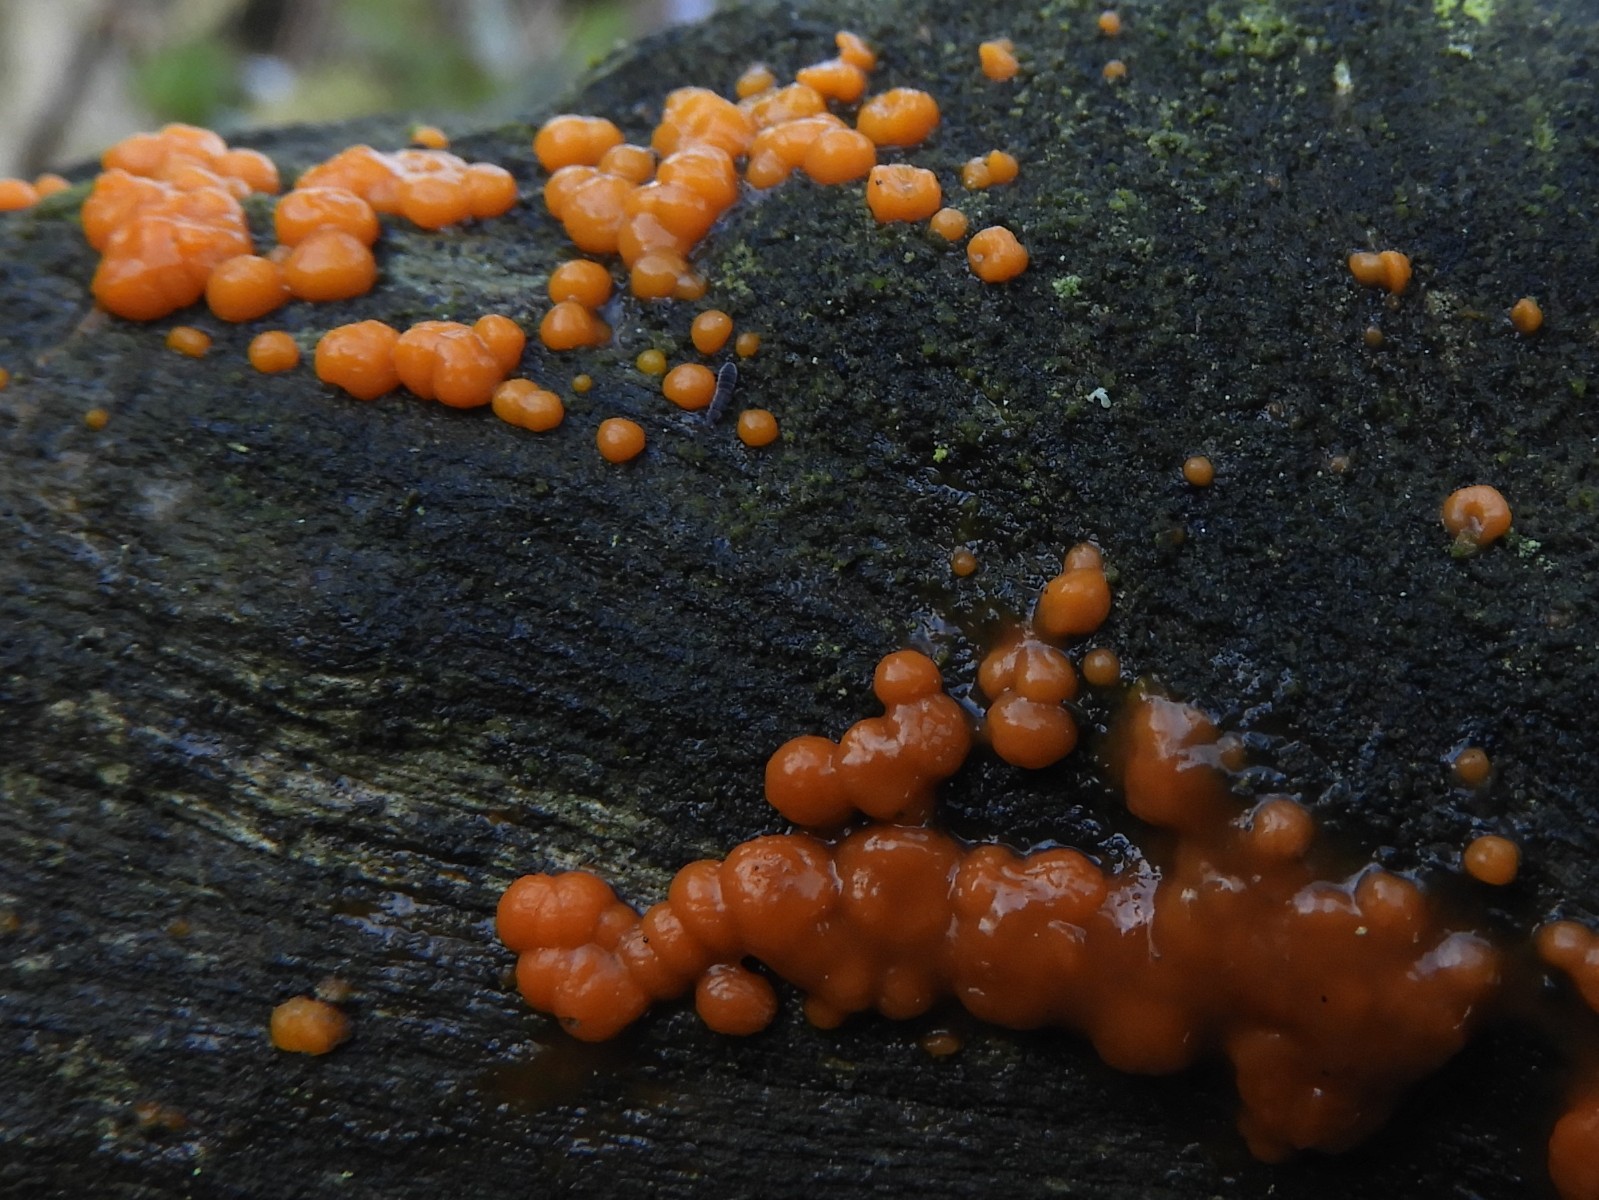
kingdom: Fungi
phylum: Basidiomycota
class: Dacrymycetes
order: Dacrymycetales
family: Dacrymycetaceae
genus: Dacrymyces
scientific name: Dacrymyces stillatus
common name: almindelig tåresvamp
